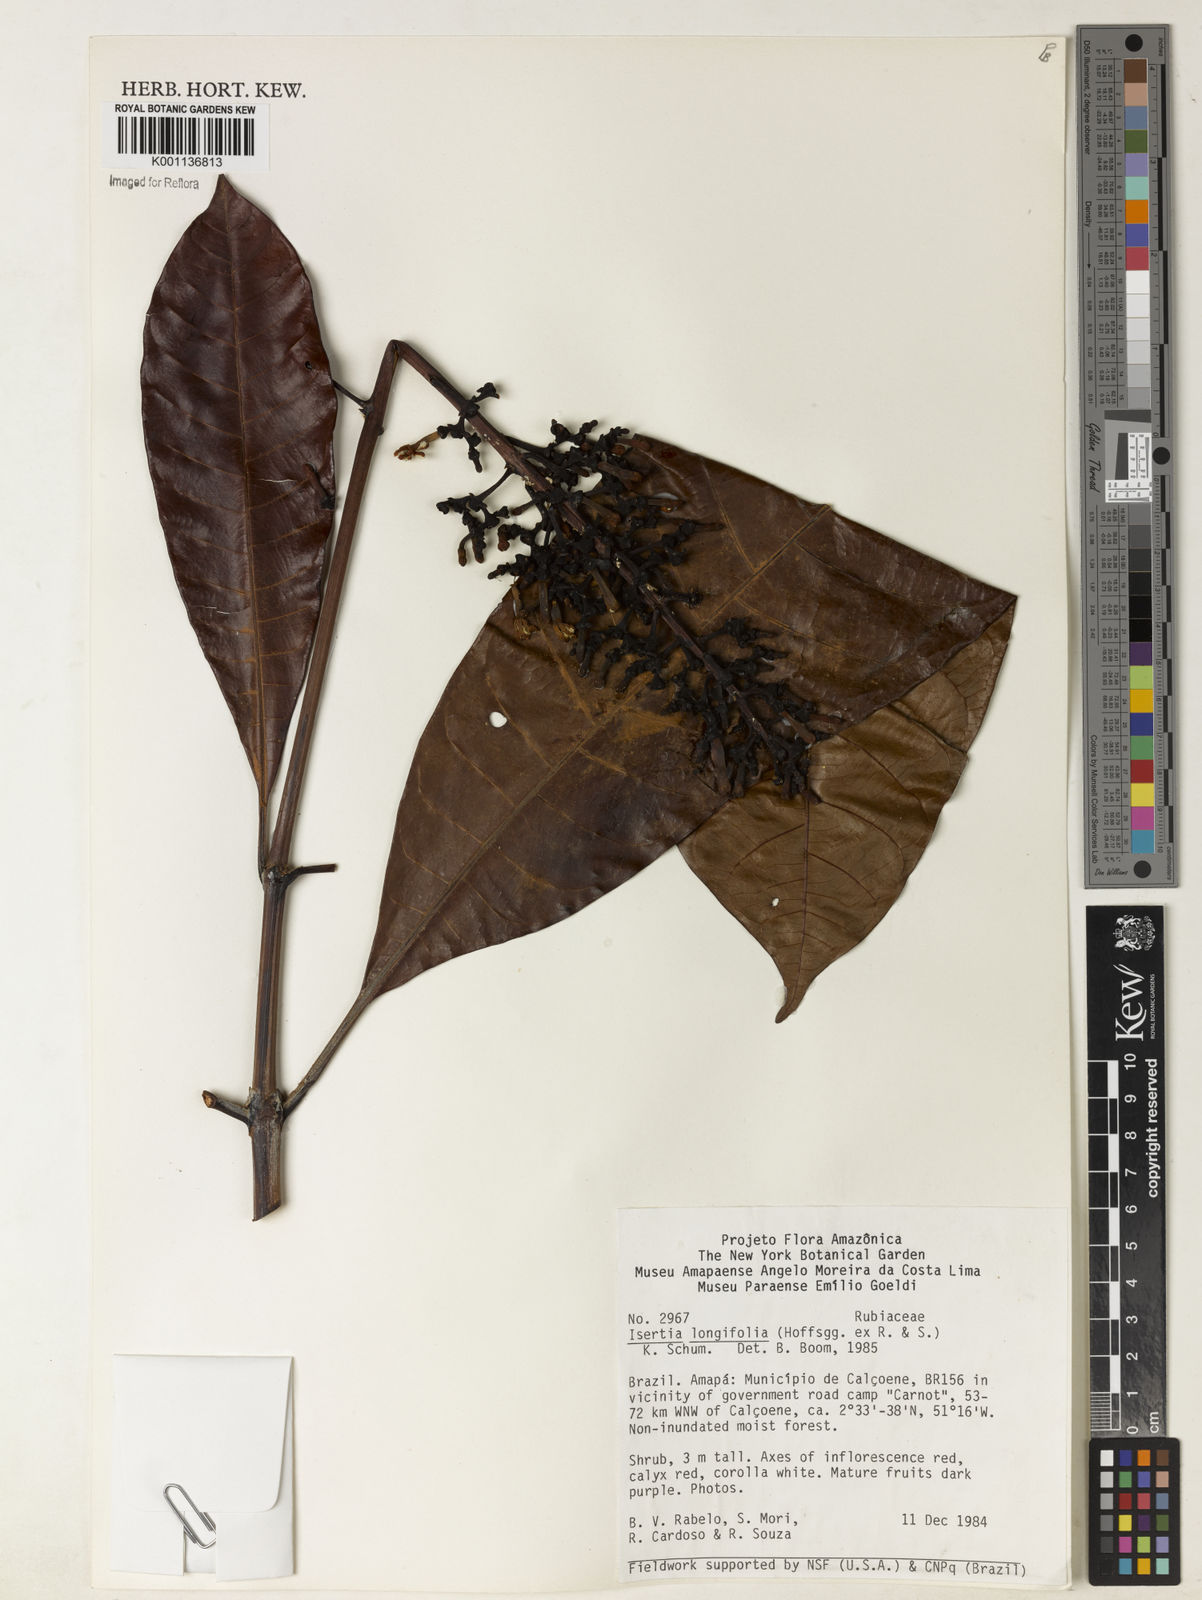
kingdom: Plantae
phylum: Tracheophyta
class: Magnoliopsida
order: Gentianales
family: Rubiaceae
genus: Isertia
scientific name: Isertia longifolia
